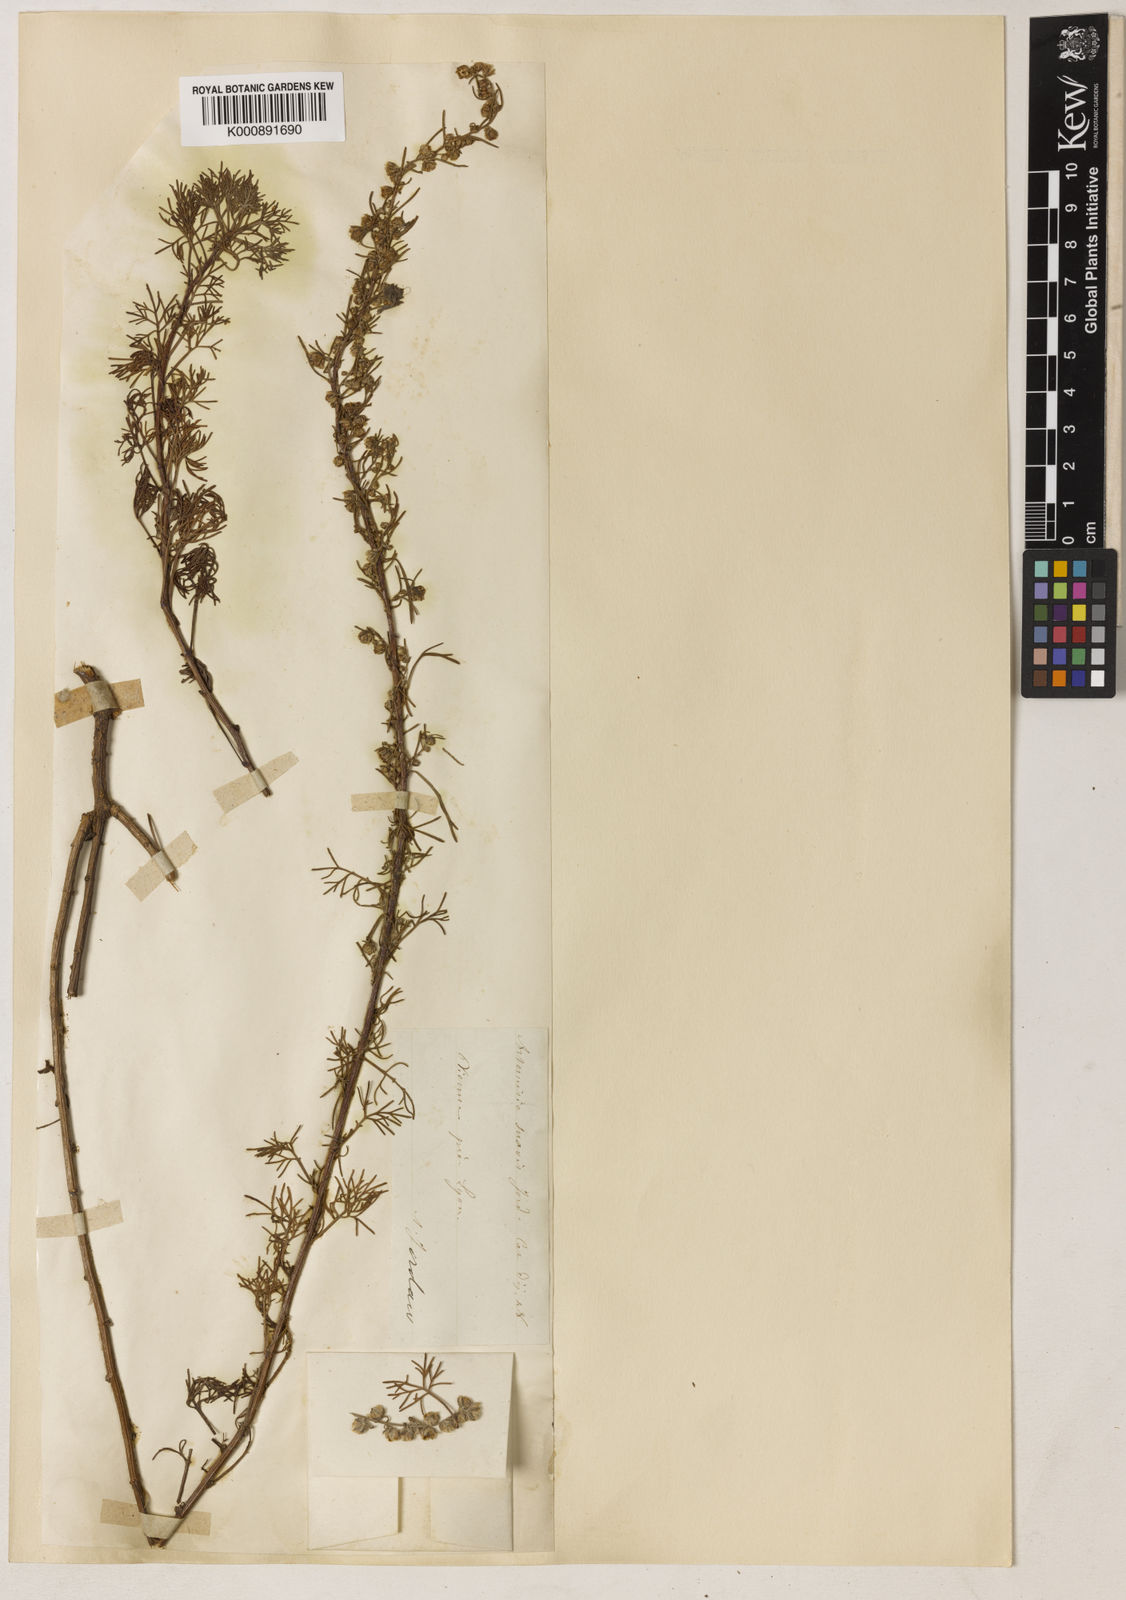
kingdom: Plantae
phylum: Tracheophyta
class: Magnoliopsida
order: Asterales
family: Asteraceae
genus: Artemisia
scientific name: Artemisia alba
